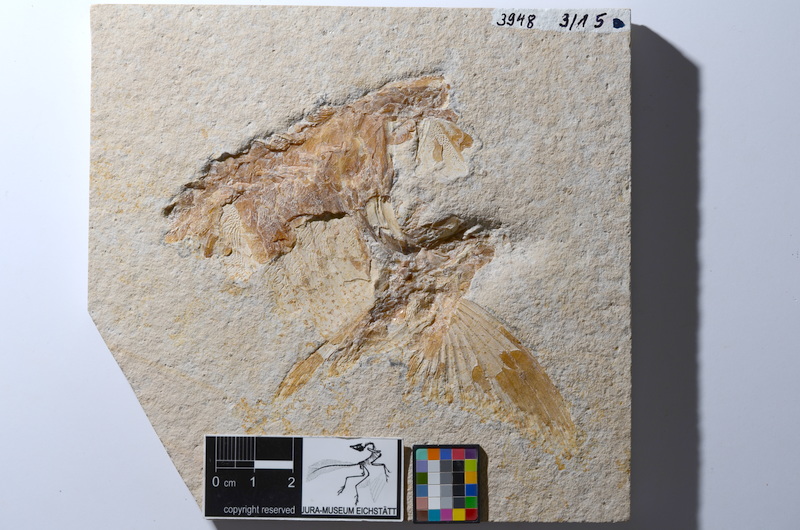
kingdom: Animalia
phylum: Chordata
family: Aspidorhynchidae
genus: Aspidorhynchus
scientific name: Aspidorhynchus acutirostris
